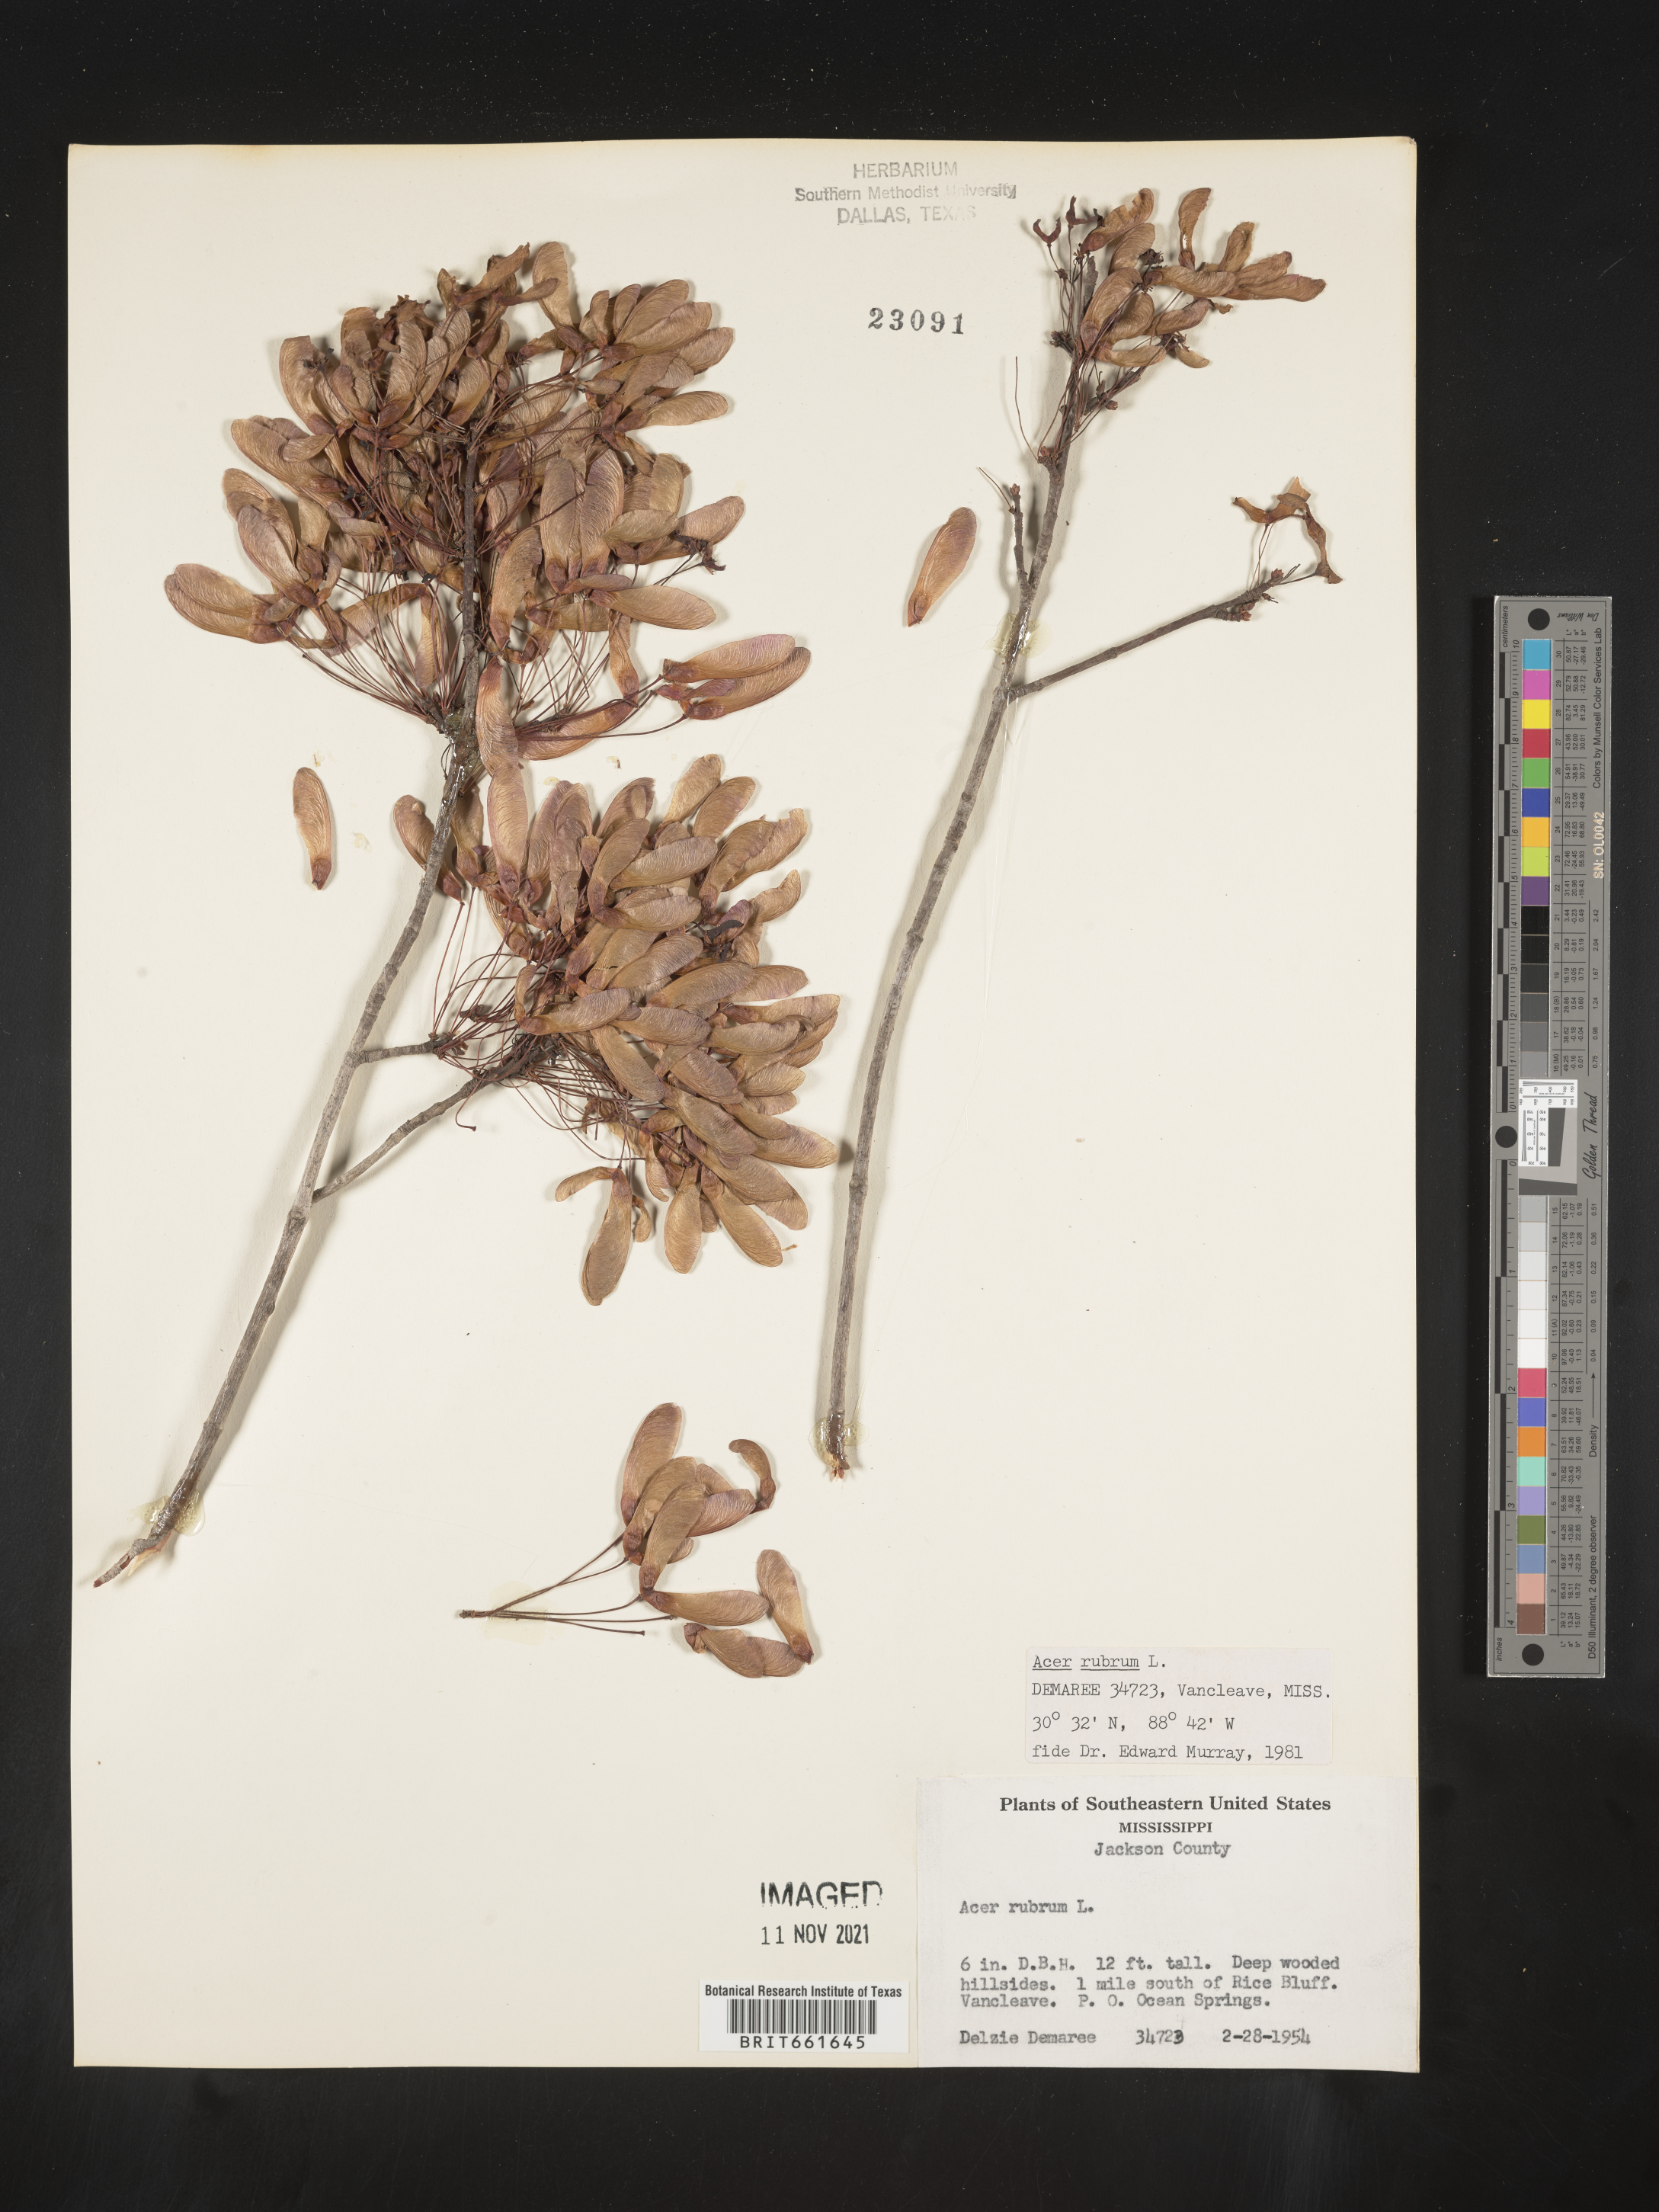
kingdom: Plantae
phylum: Tracheophyta
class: Magnoliopsida
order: Sapindales
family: Sapindaceae
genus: Acer
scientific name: Acer rubrum
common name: Red maple
